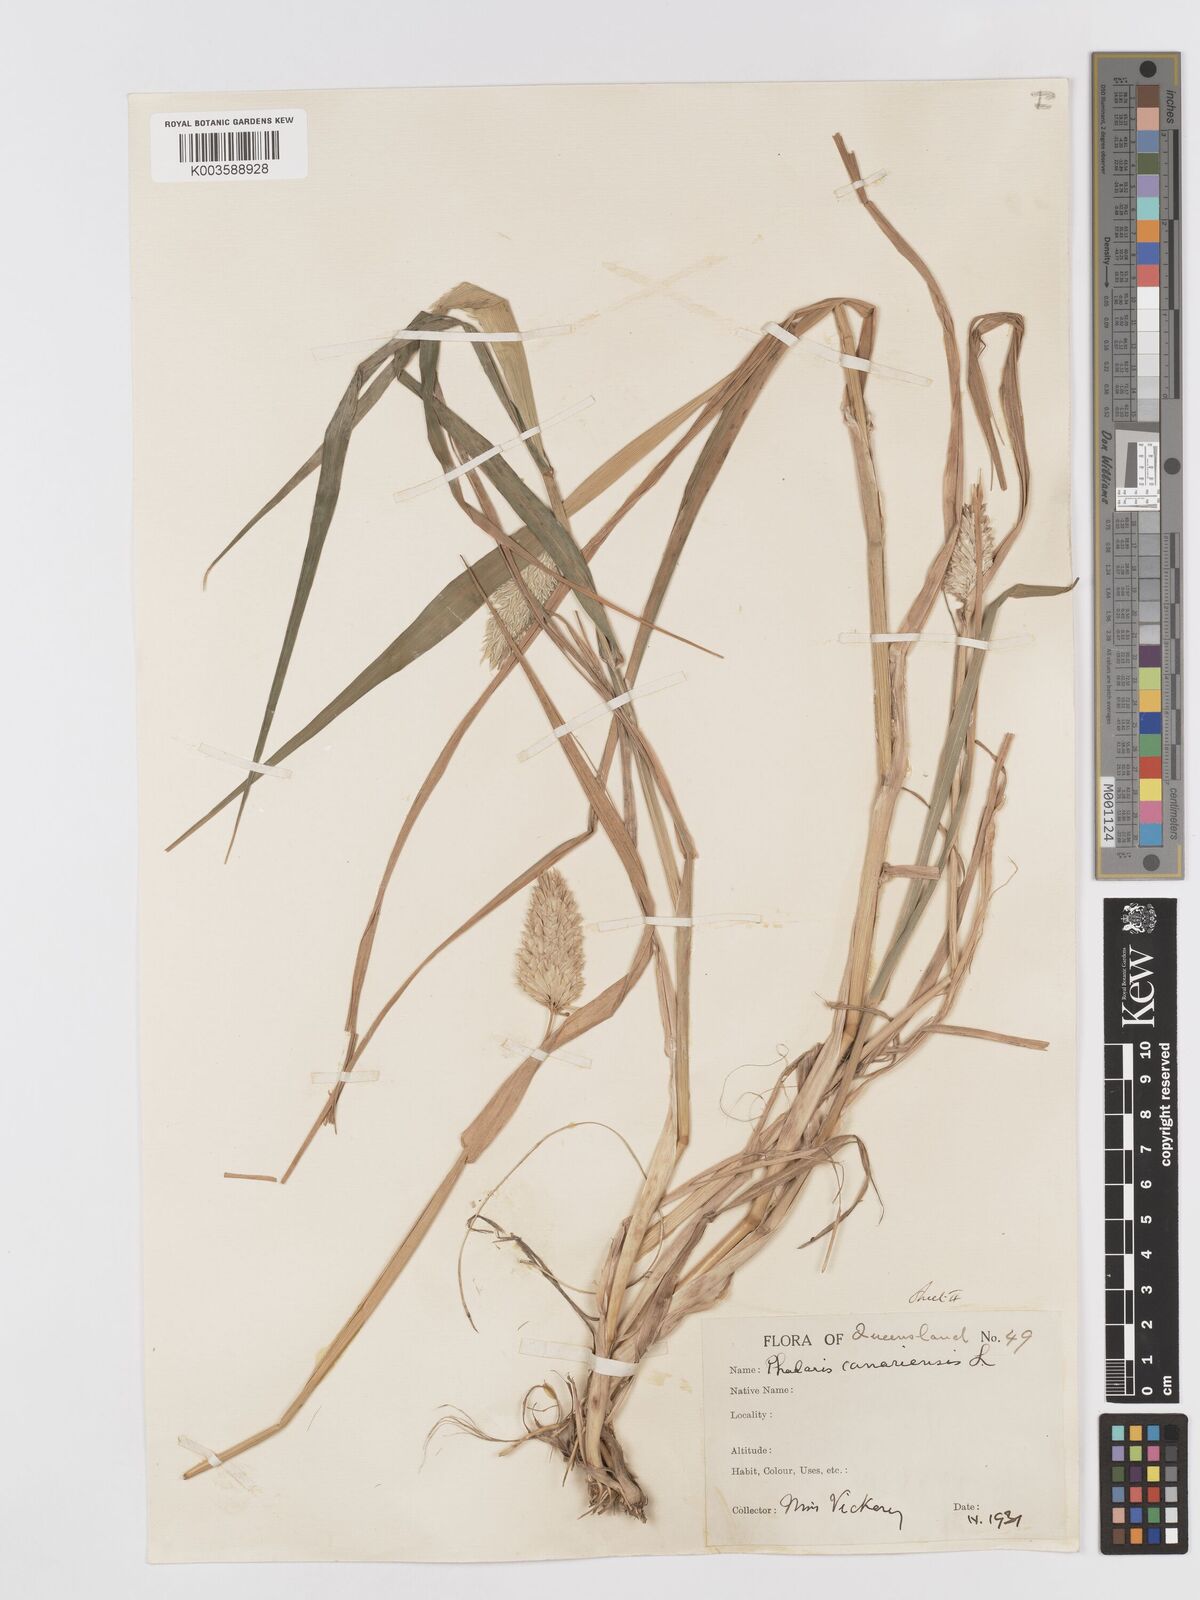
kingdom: Plantae
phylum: Tracheophyta
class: Liliopsida
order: Poales
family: Poaceae
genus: Phalaris
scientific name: Phalaris canariensis
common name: Annual canarygrass
